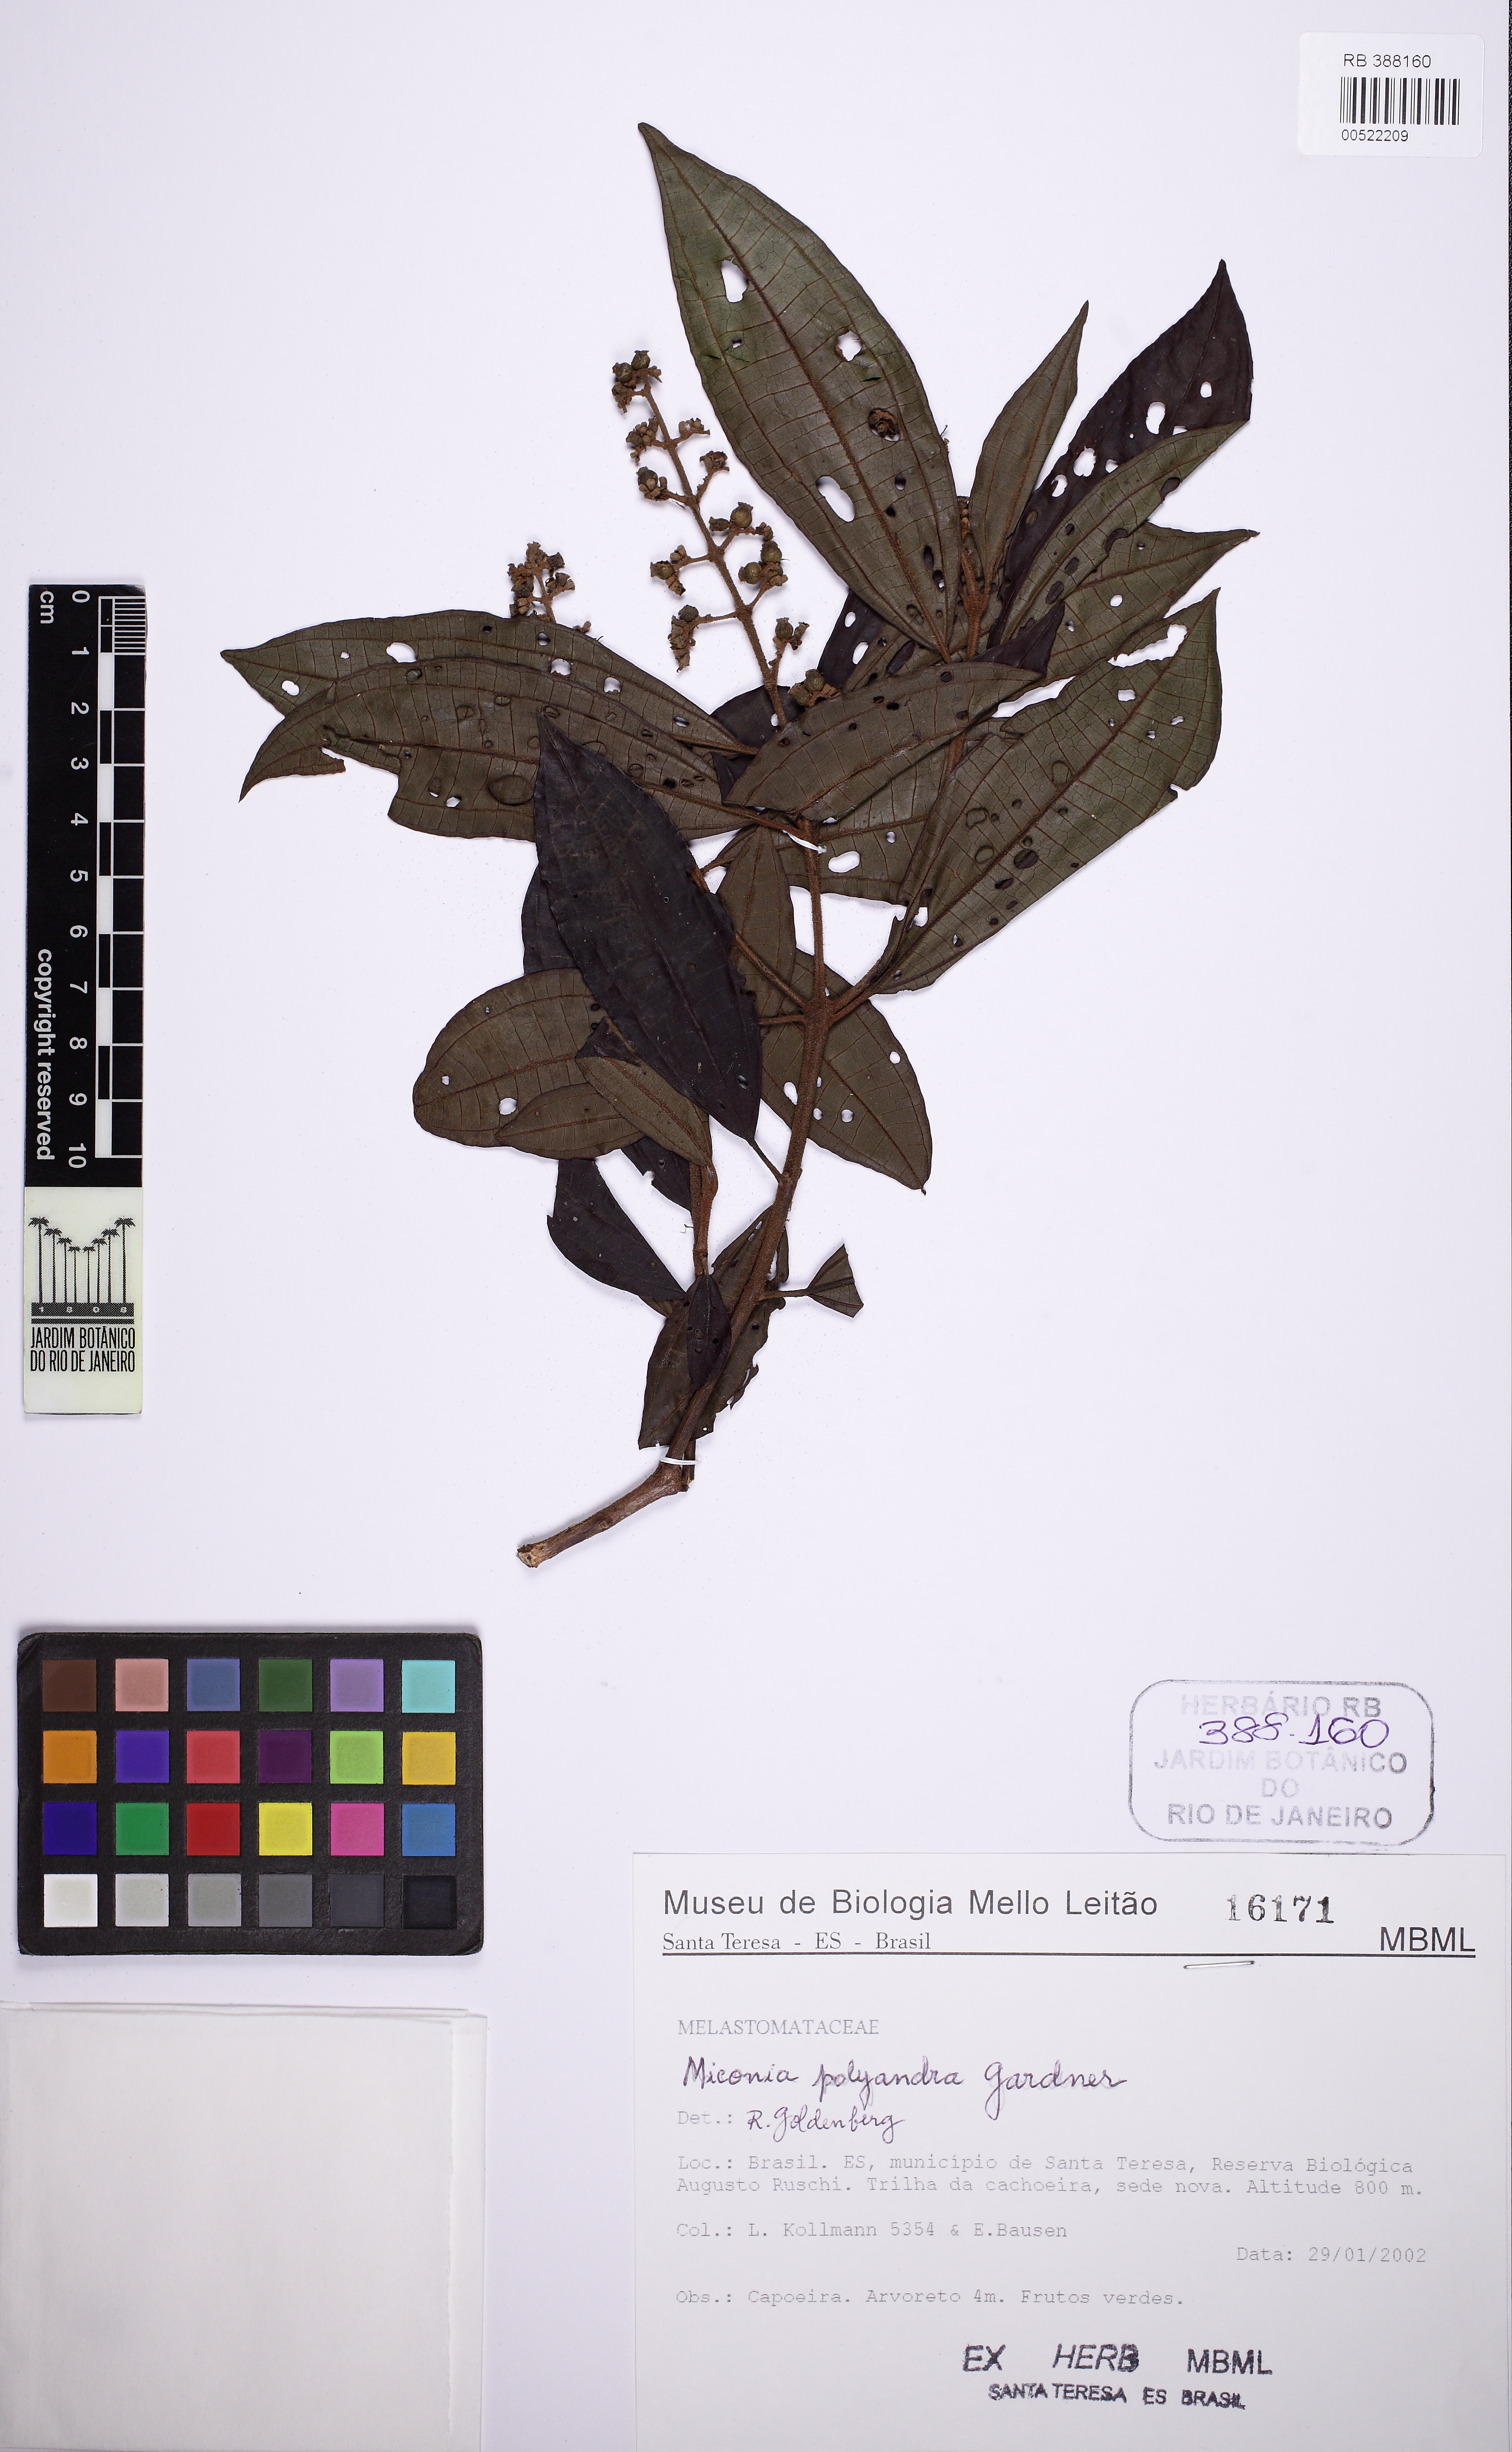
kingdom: Plantae
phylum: Tracheophyta
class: Magnoliopsida
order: Myrtales
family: Melastomataceae
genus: Miconia
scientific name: Miconia polyandra
